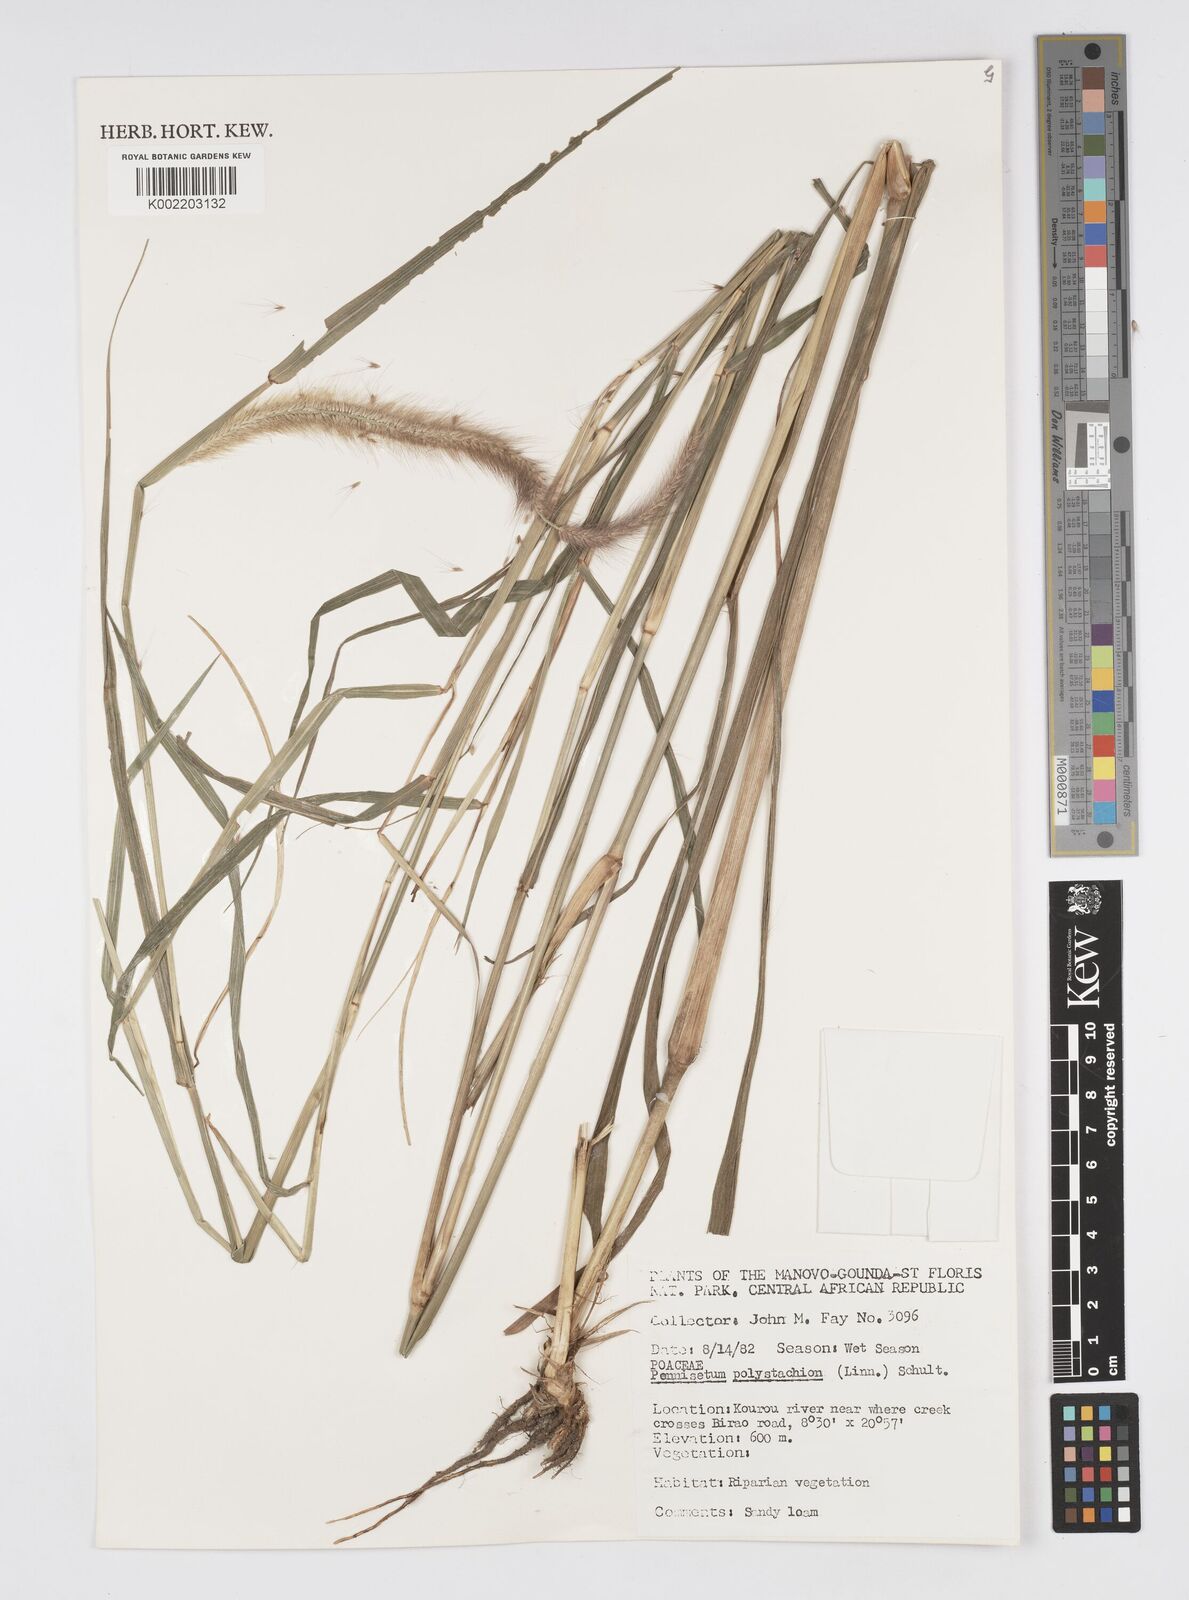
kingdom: Plantae
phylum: Tracheophyta
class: Liliopsida
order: Poales
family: Poaceae
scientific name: Poaceae
